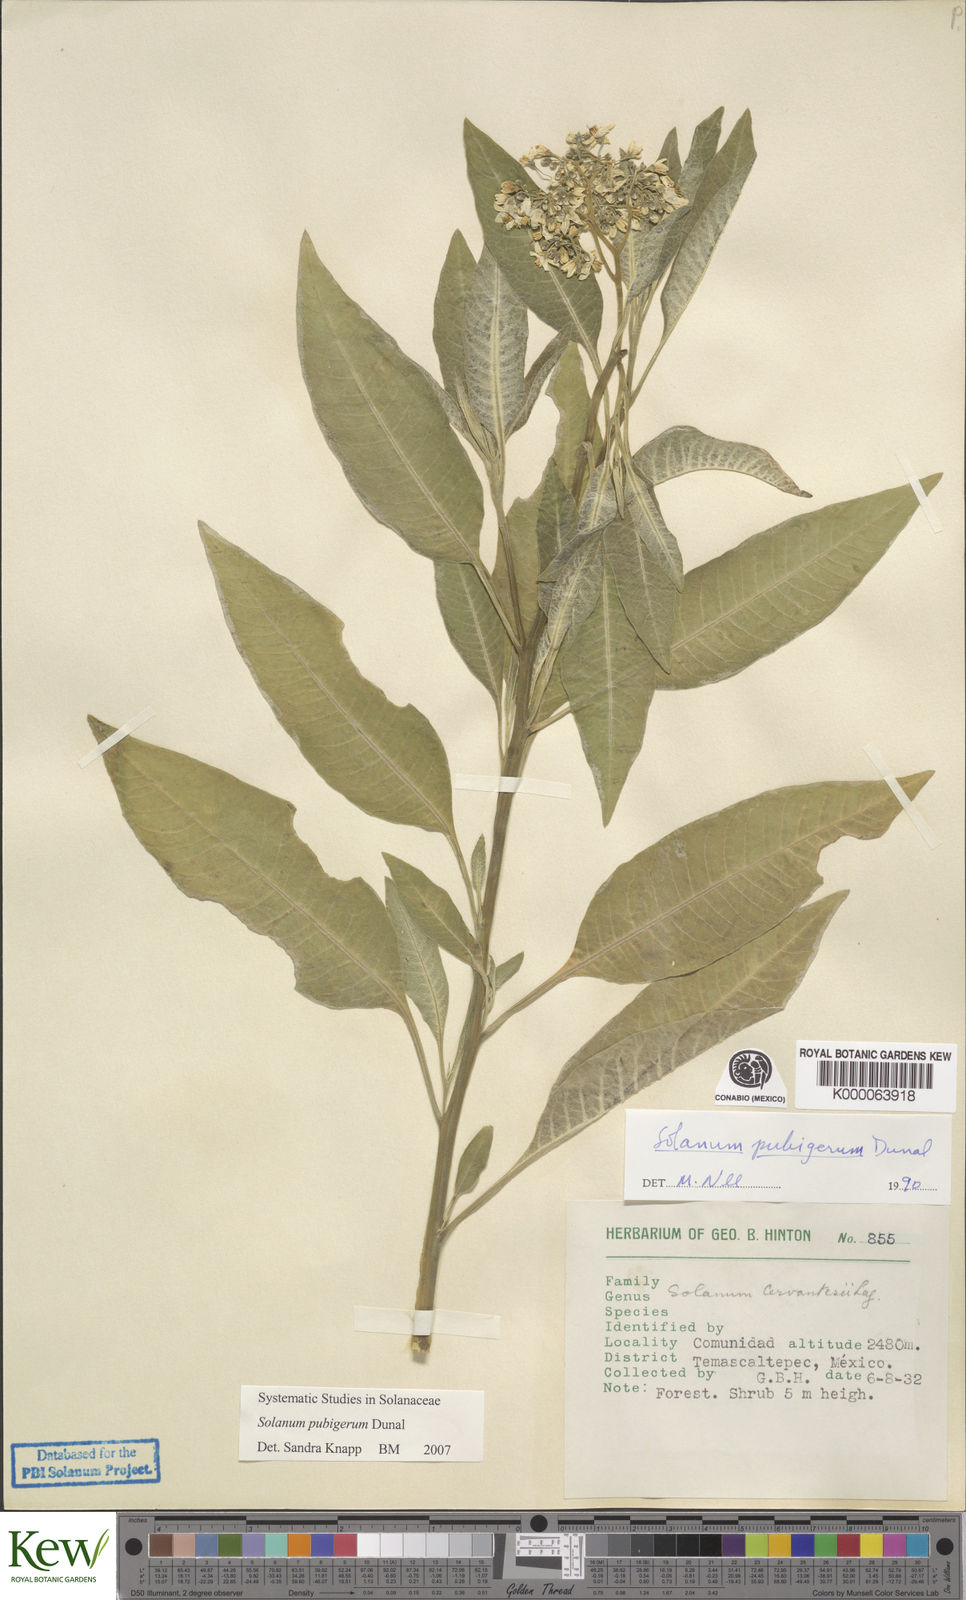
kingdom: Plantae
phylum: Tracheophyta
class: Magnoliopsida
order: Solanales
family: Solanaceae
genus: Solanum
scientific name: Solanum pubigerum
